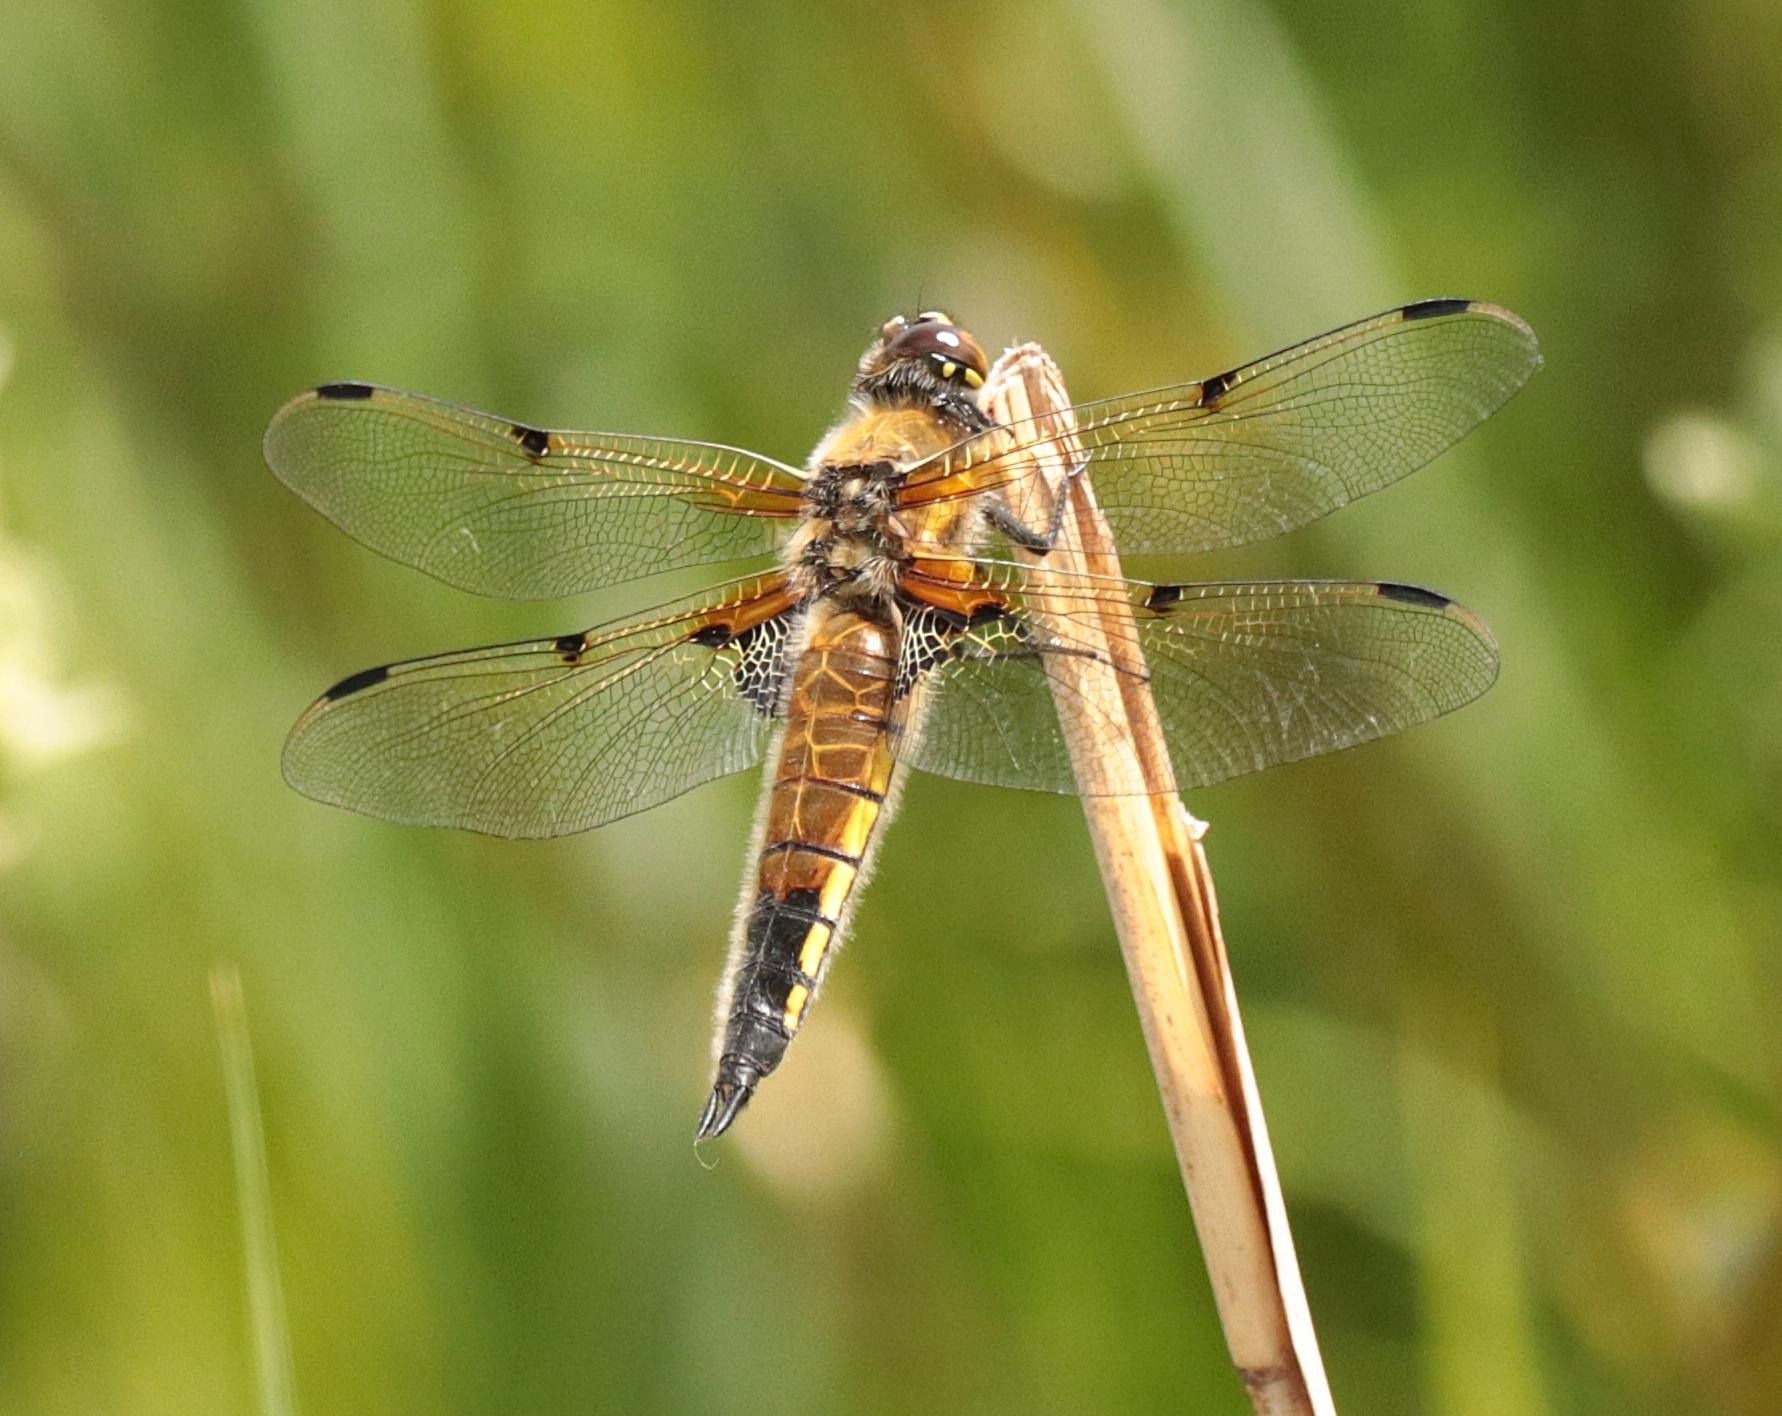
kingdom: Animalia
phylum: Arthropoda
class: Insecta
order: Odonata
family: Libellulidae
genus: Libellula
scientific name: Libellula quadrimaculata
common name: Fireplettet libel
